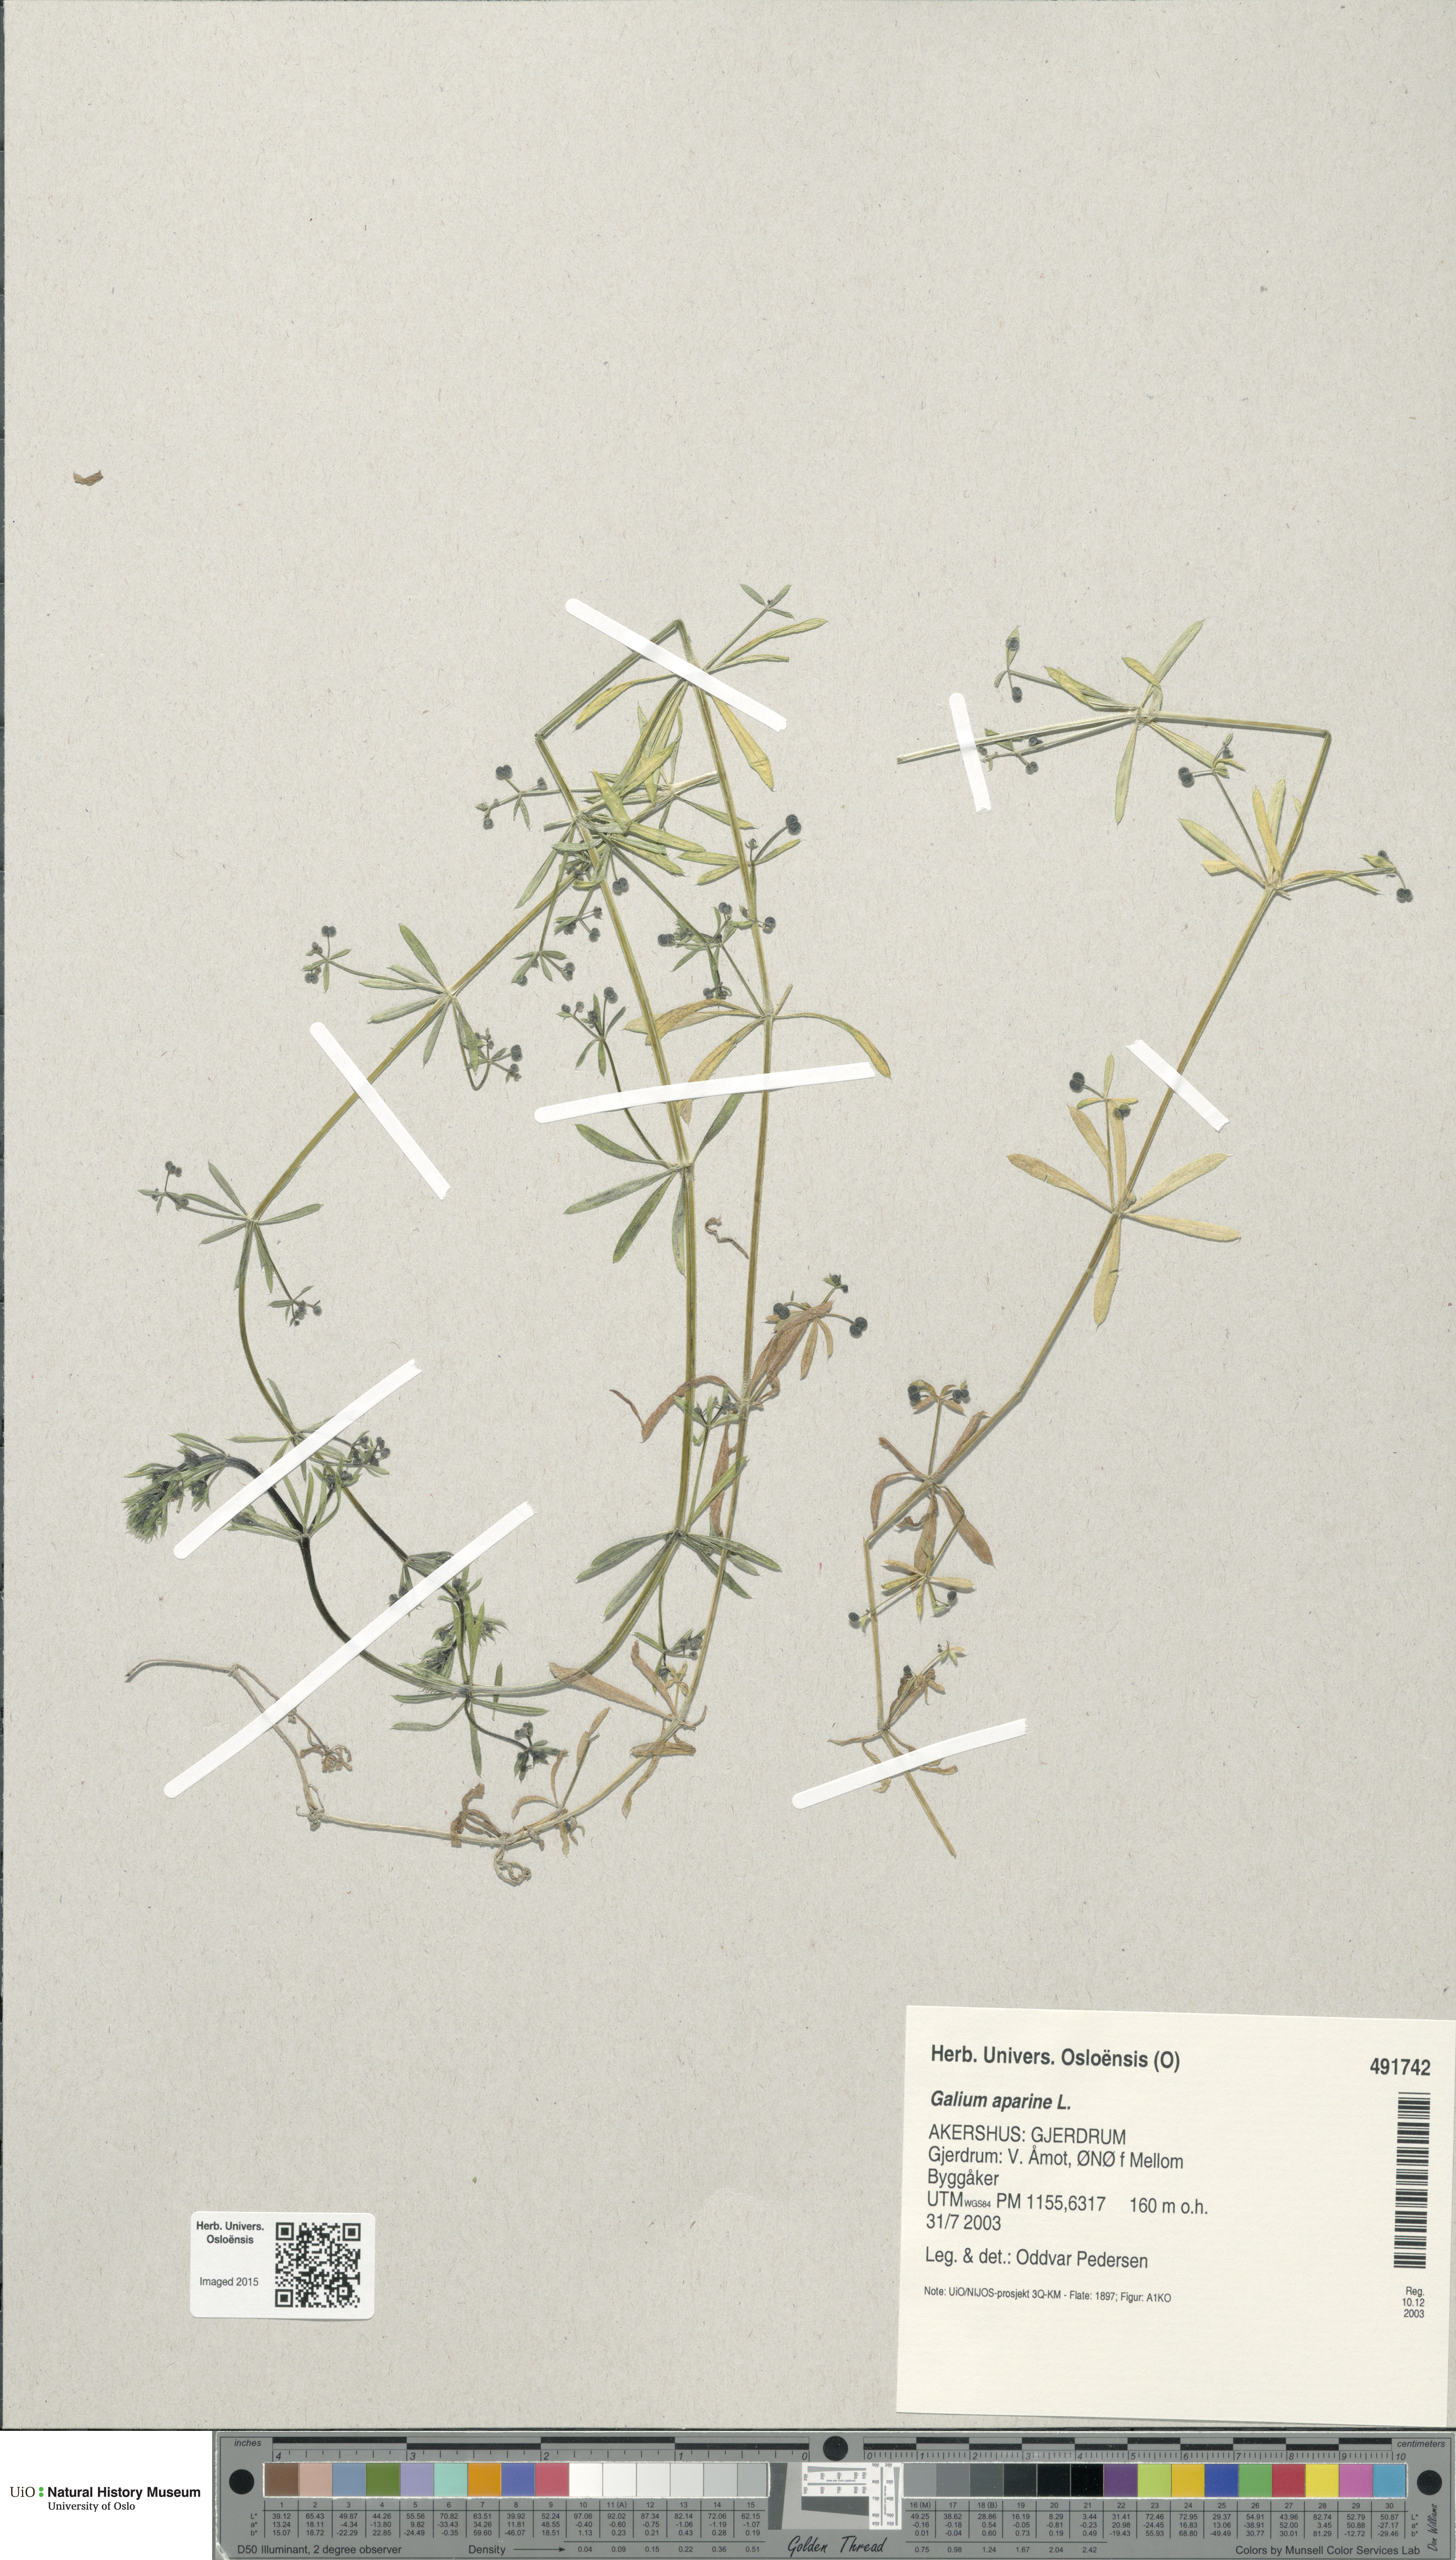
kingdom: Plantae
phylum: Tracheophyta
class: Magnoliopsida
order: Gentianales
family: Rubiaceae
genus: Galium
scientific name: Galium aparine
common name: Cleavers
